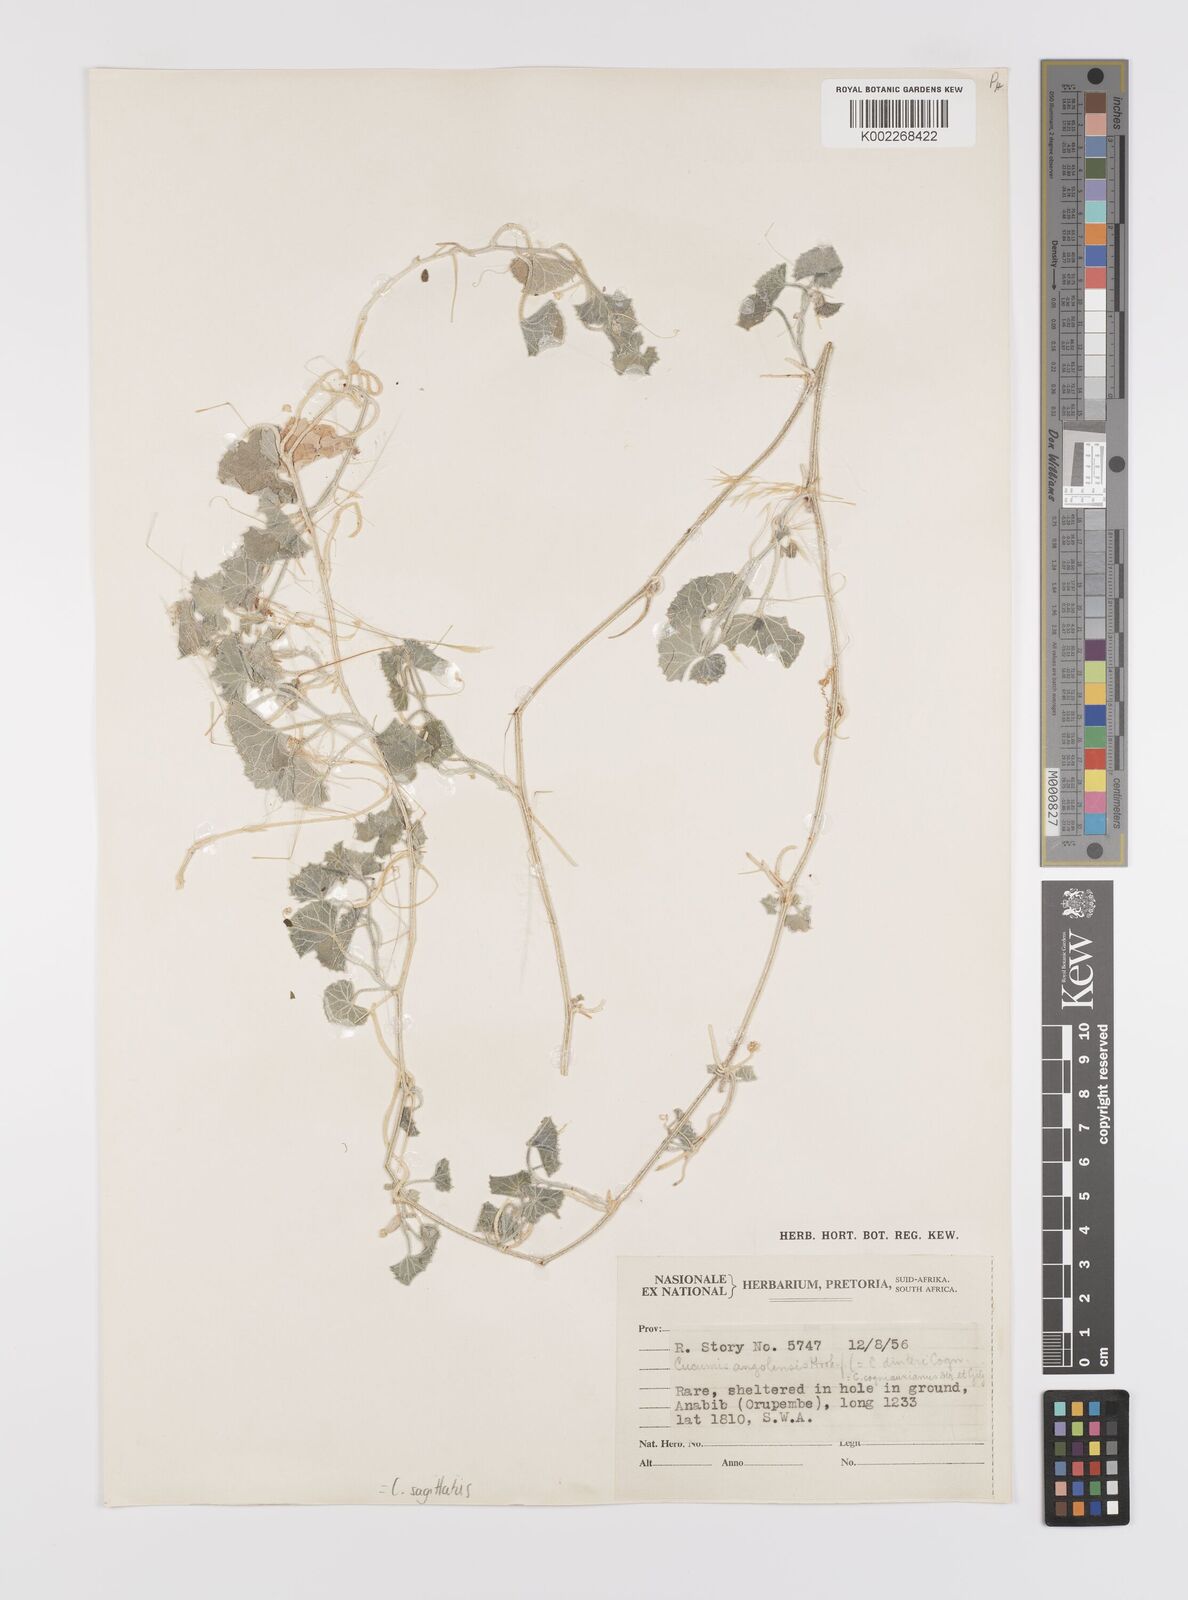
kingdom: Plantae
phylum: Tracheophyta
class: Magnoliopsida
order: Cucurbitales
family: Cucurbitaceae
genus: Cucumis
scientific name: Cucumis sagittatus
